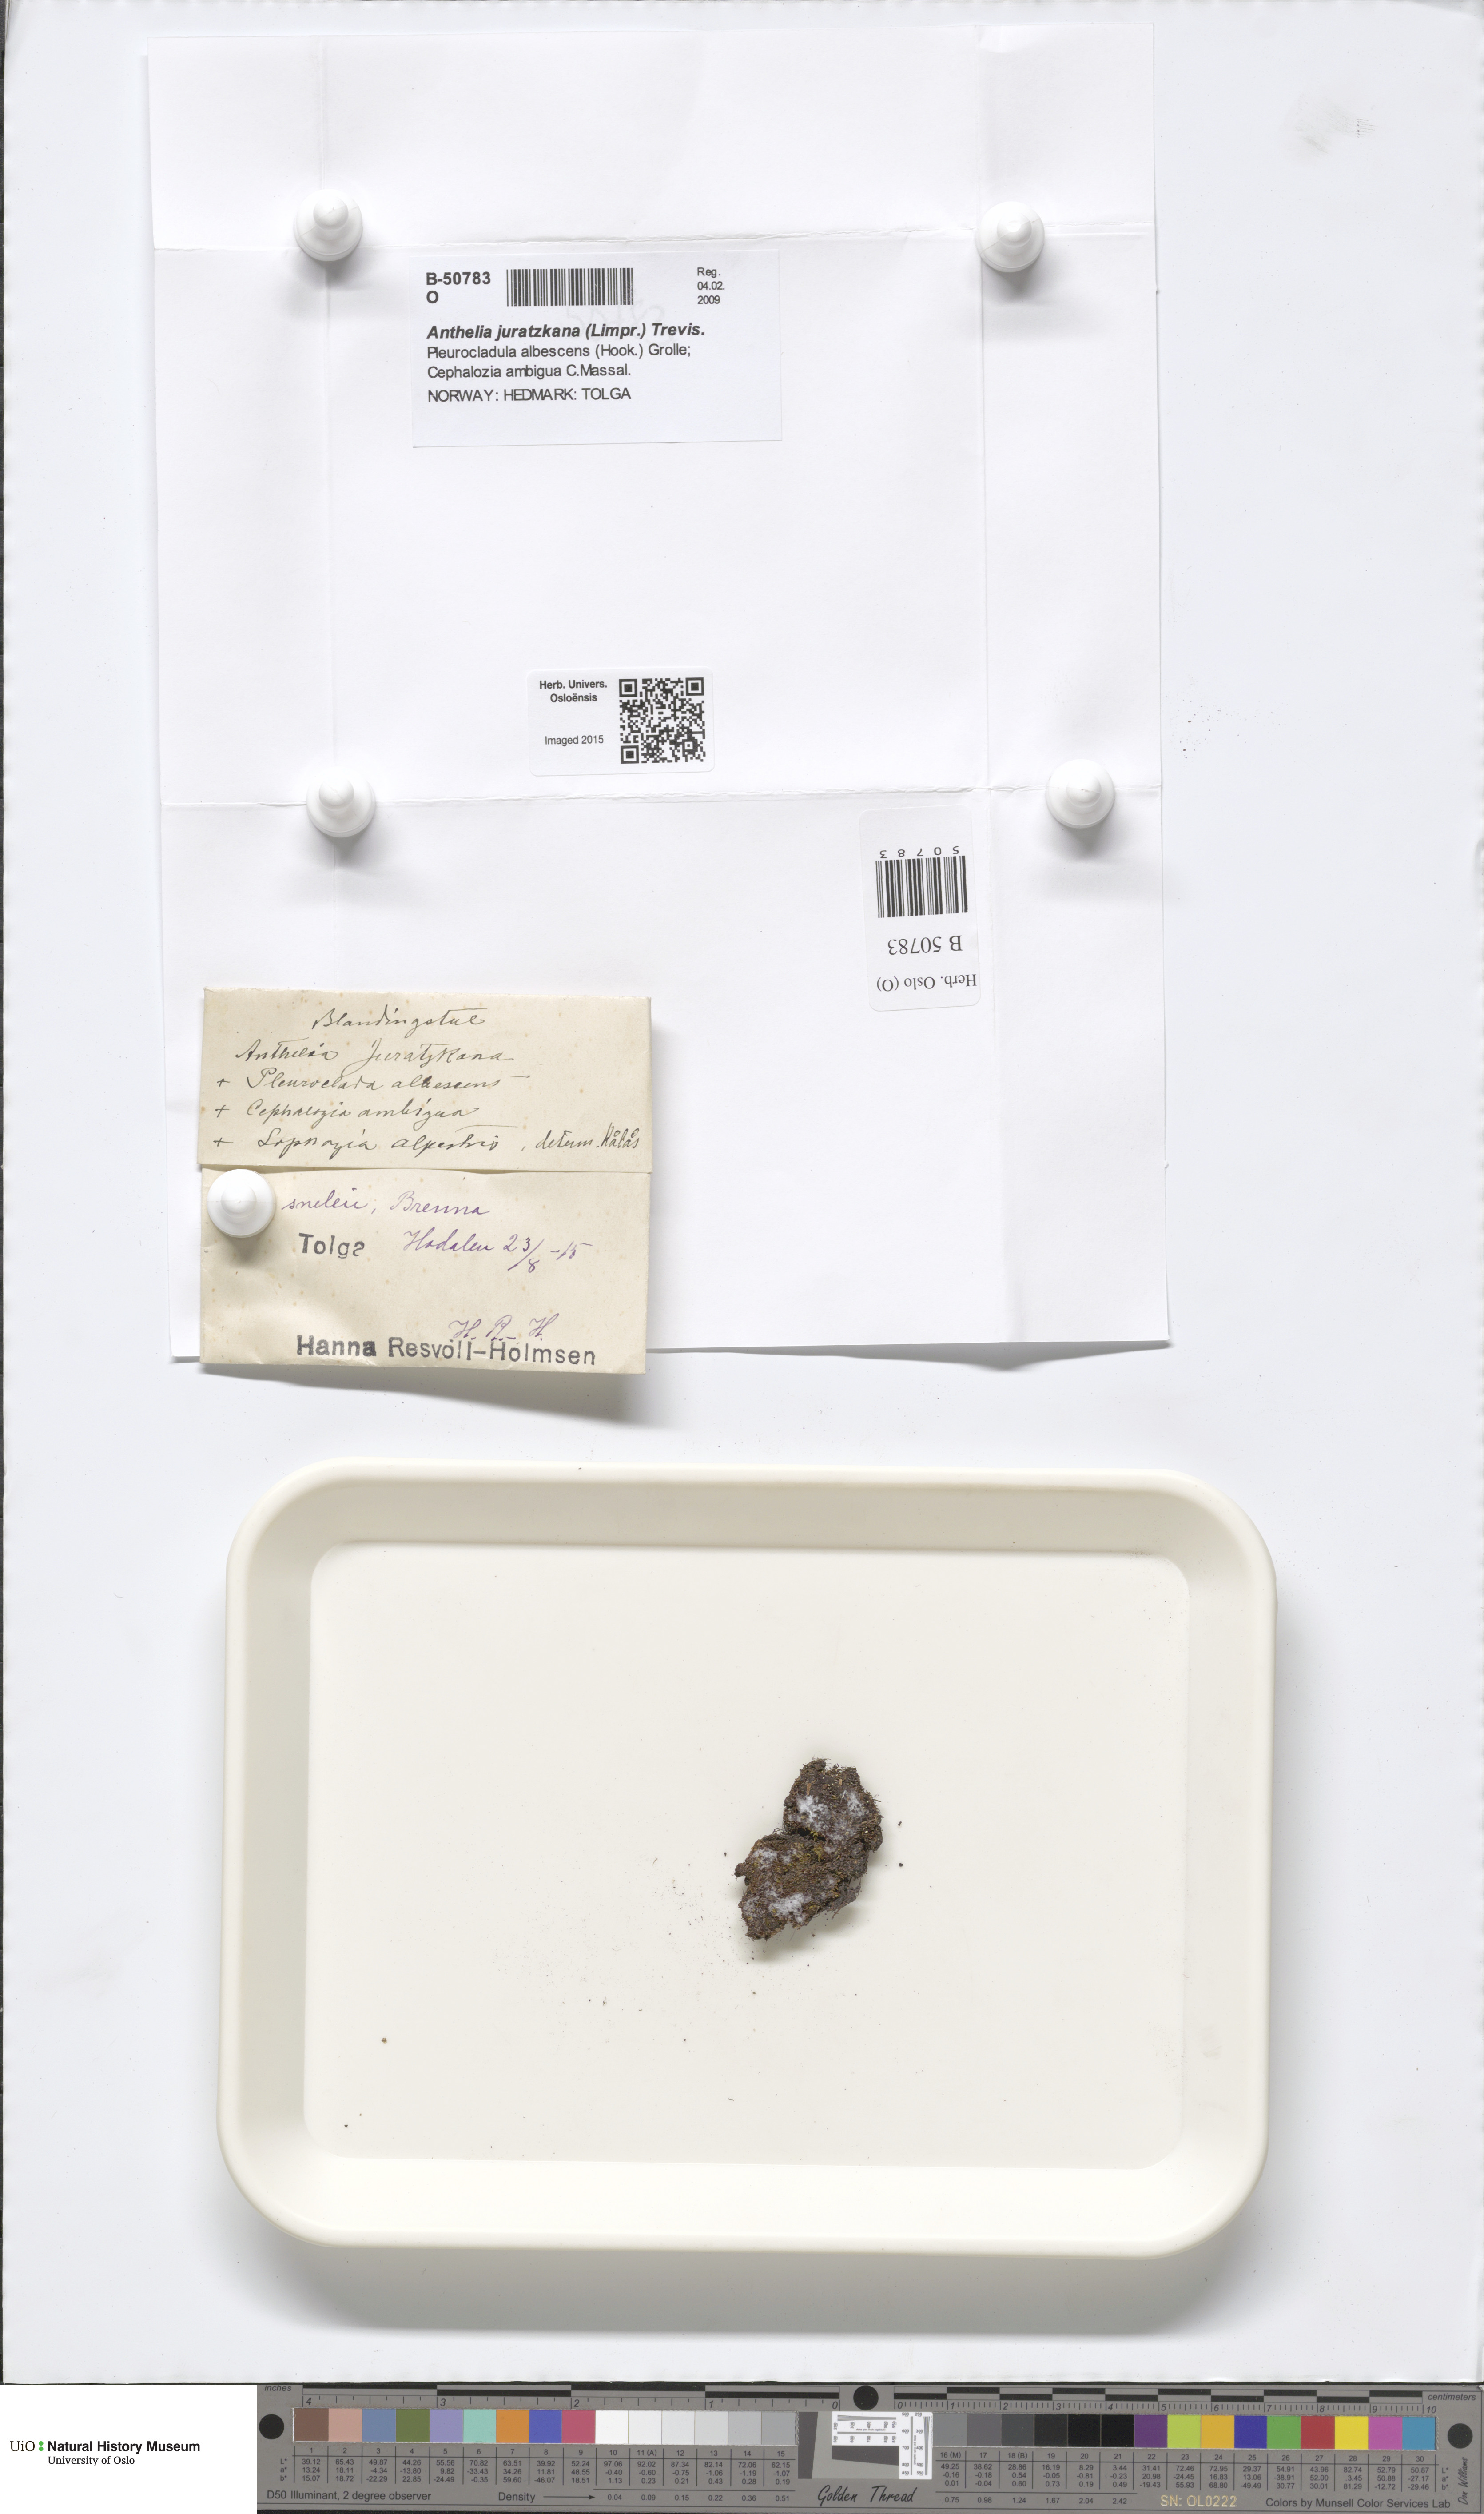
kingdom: Plantae
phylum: Marchantiophyta
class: Jungermanniopsida
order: Jungermanniales
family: Antheliaceae
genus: Anthelia
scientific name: Anthelia juratzkana
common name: Juratzka s silverwort
